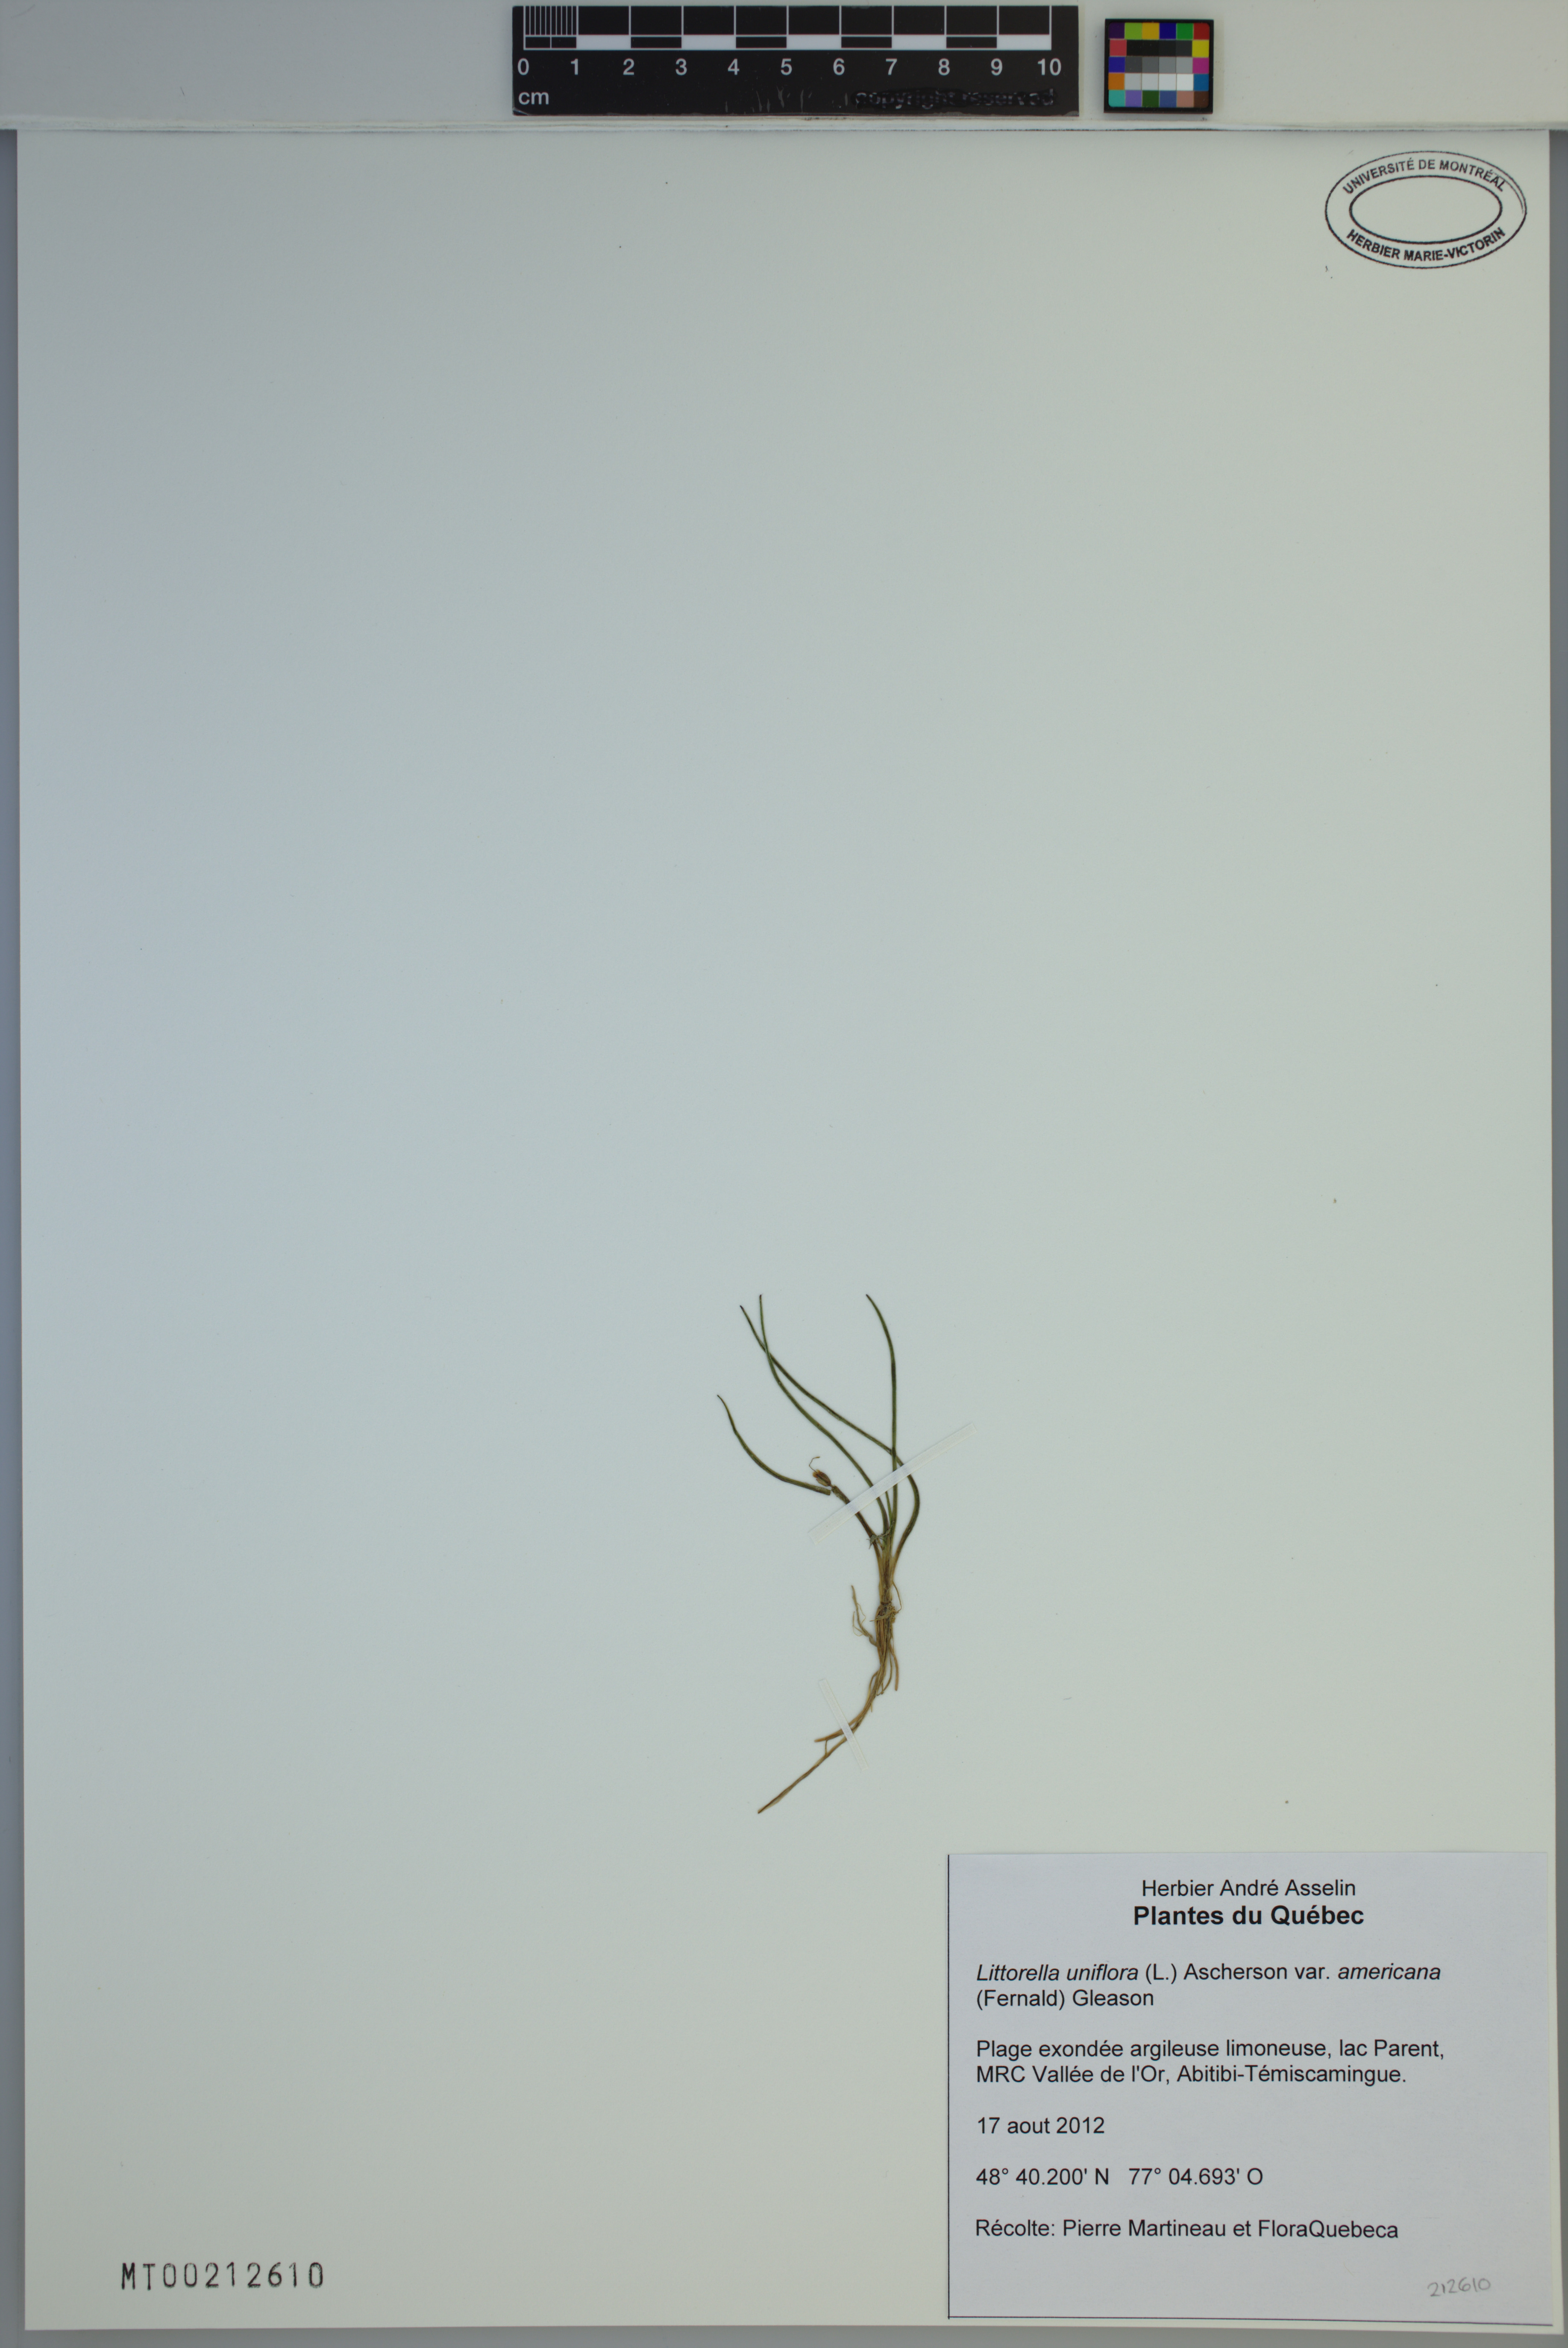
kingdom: Plantae
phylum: Tracheophyta
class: Magnoliopsida
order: Lamiales
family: Plantaginaceae
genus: Littorella
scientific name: Littorella americana
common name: American littorella
